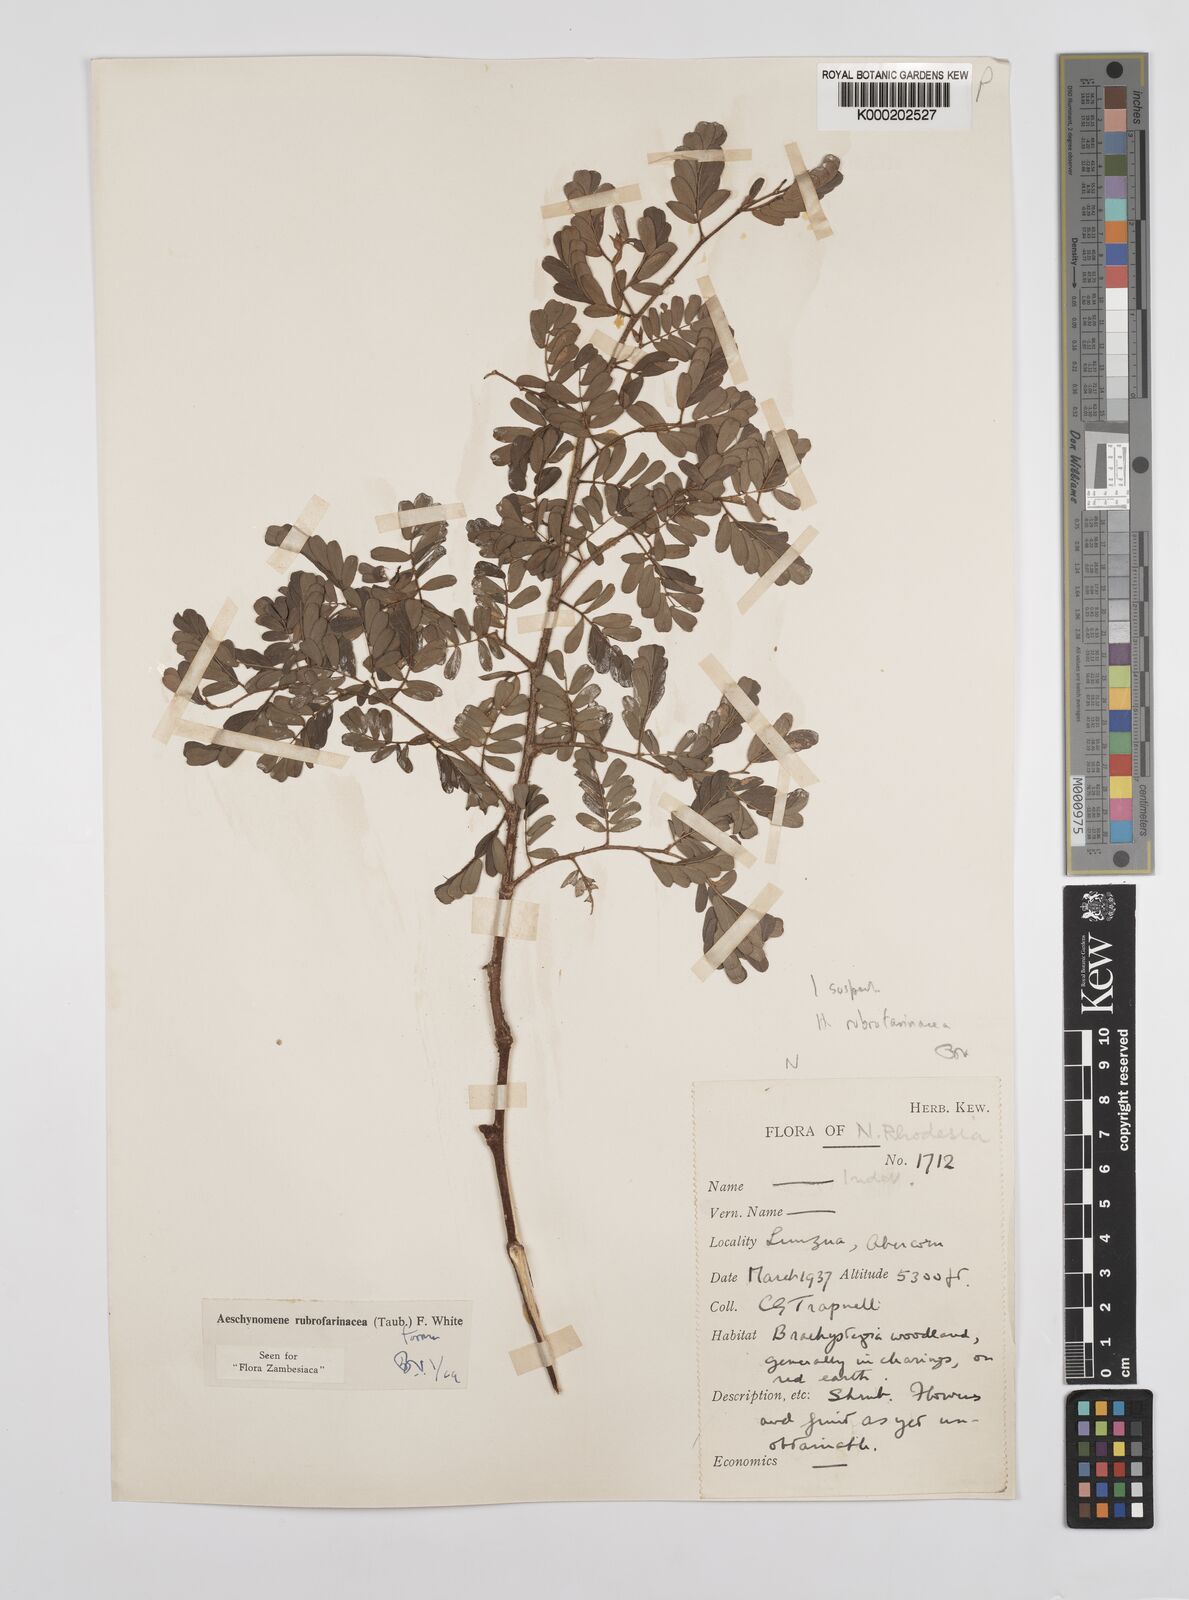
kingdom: Plantae
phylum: Tracheophyta
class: Magnoliopsida
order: Fabales
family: Fabaceae
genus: Aeschynomene
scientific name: Aeschynomene rubrofarinacea
